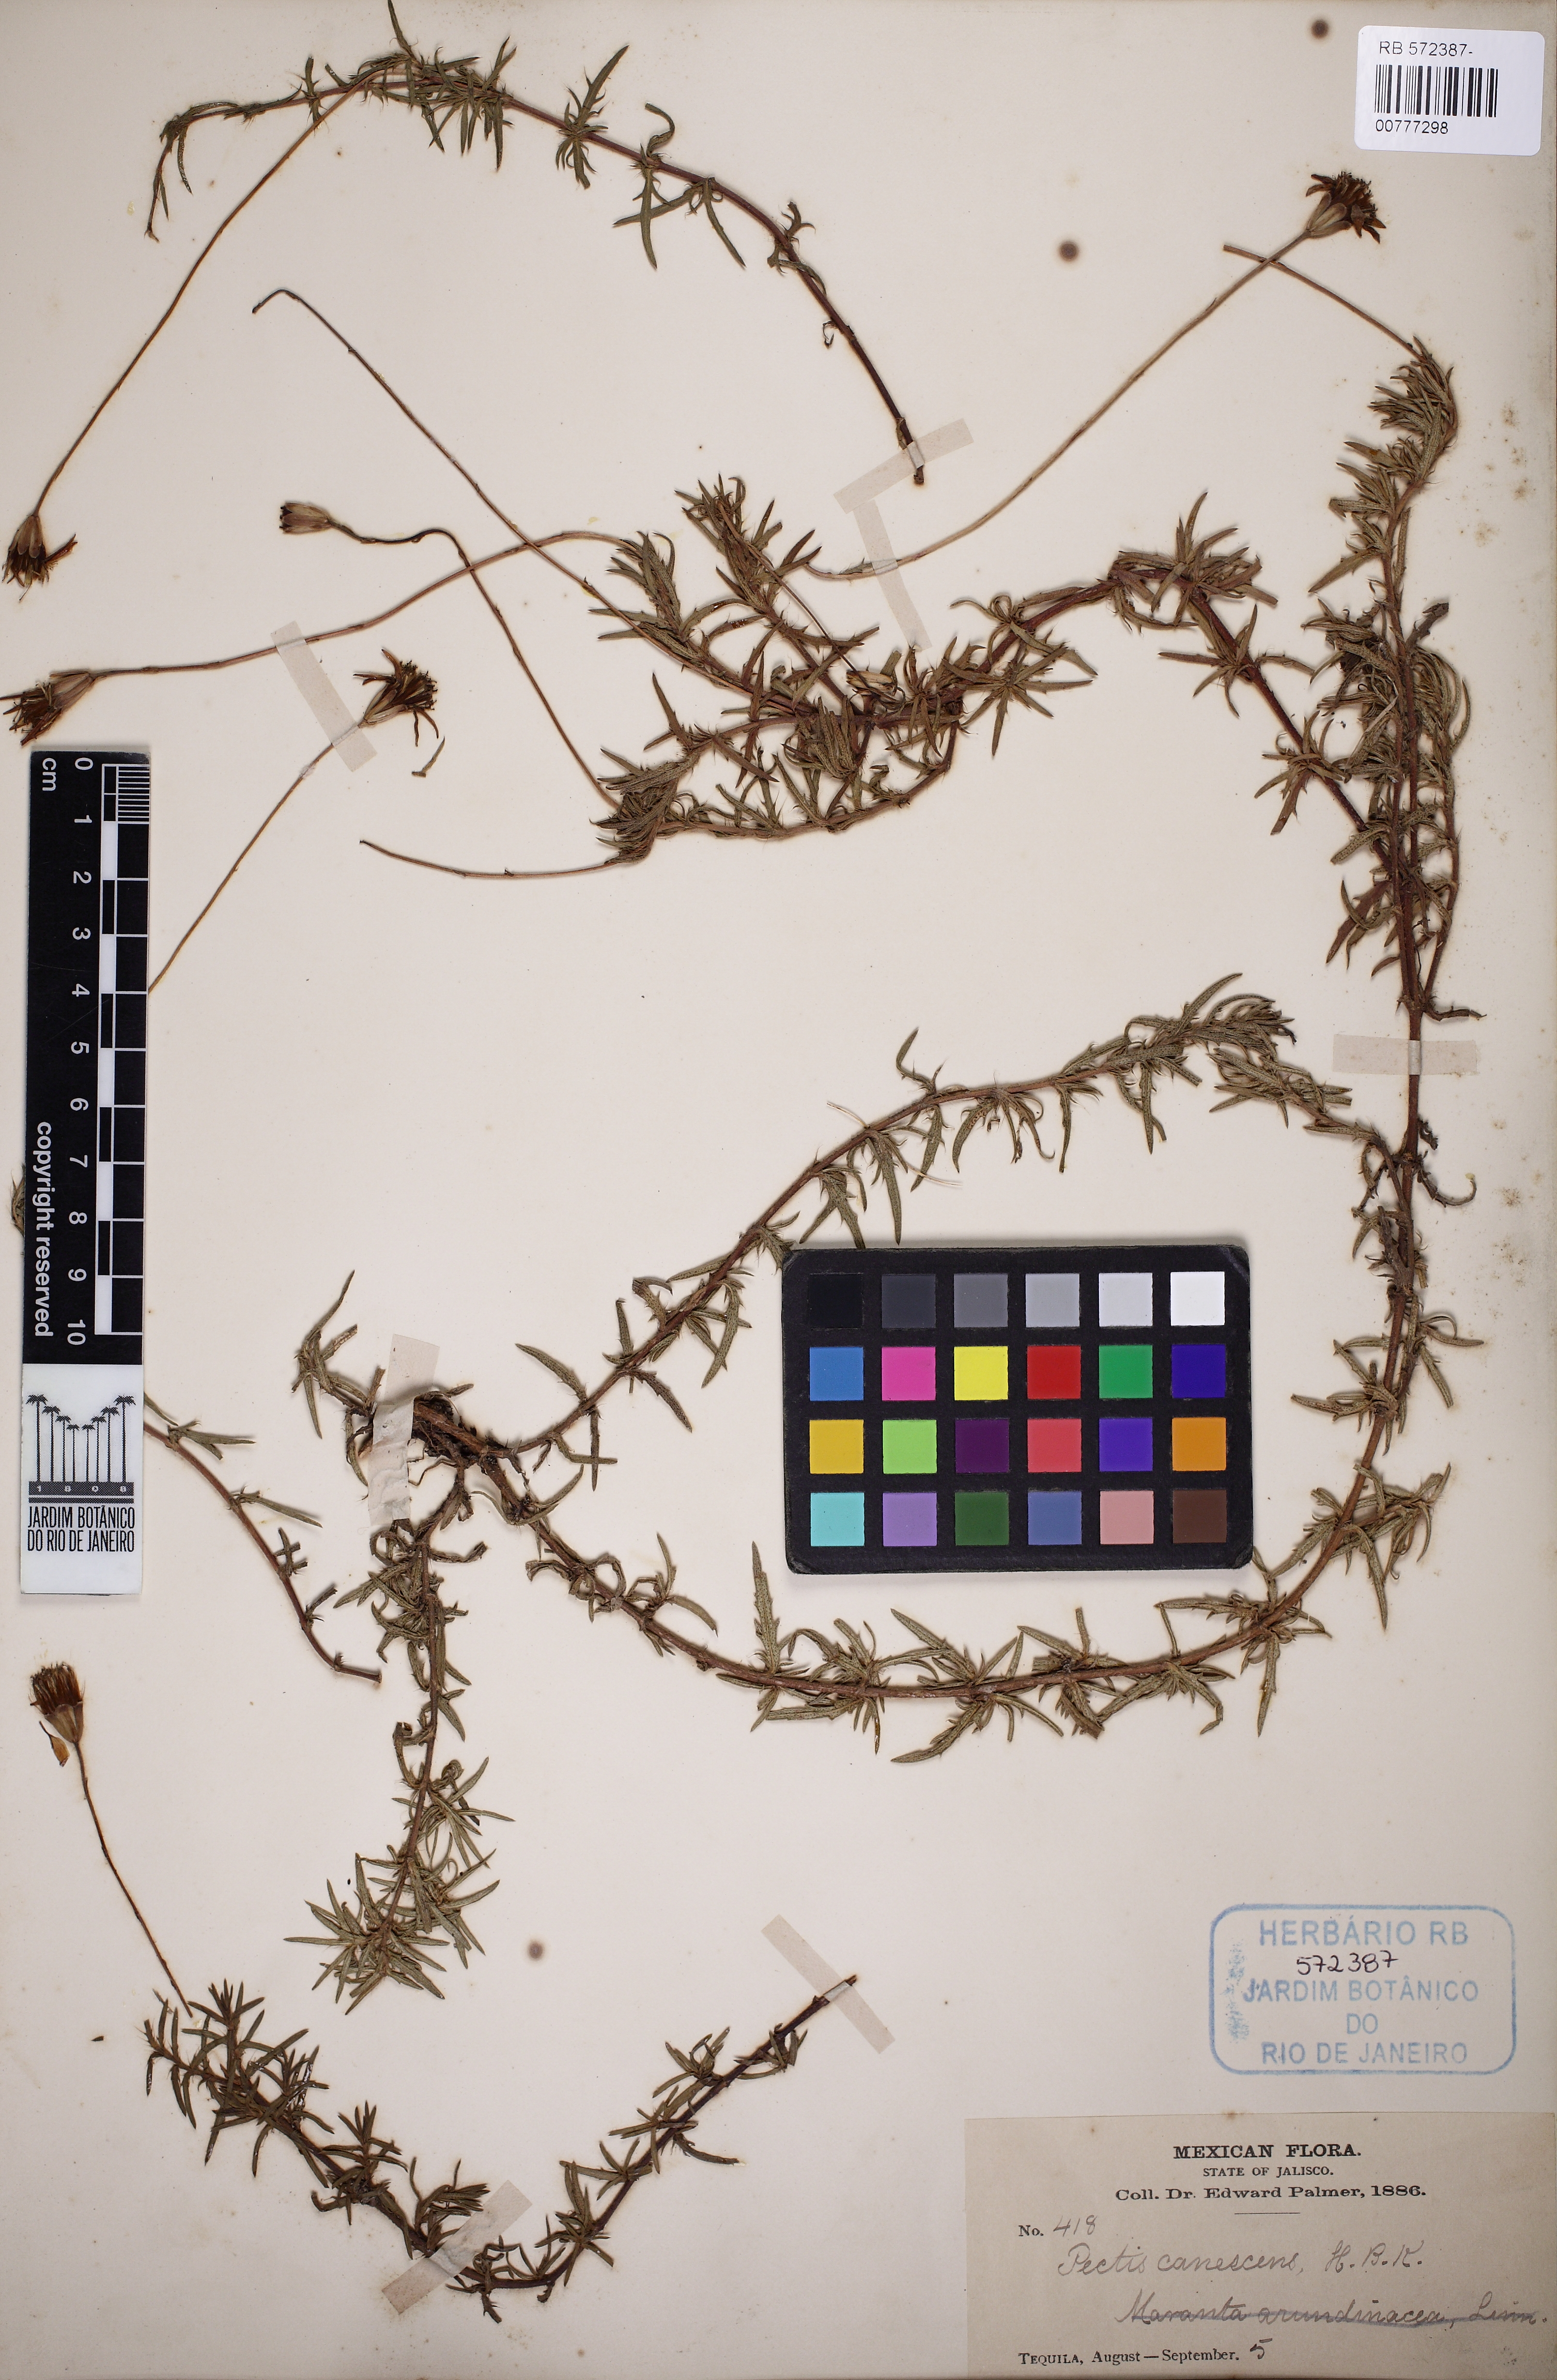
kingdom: Plantae
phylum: Tracheophyta
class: Magnoliopsida
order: Asterales
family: Asteraceae
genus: Pectis
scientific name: Pectis canescens
